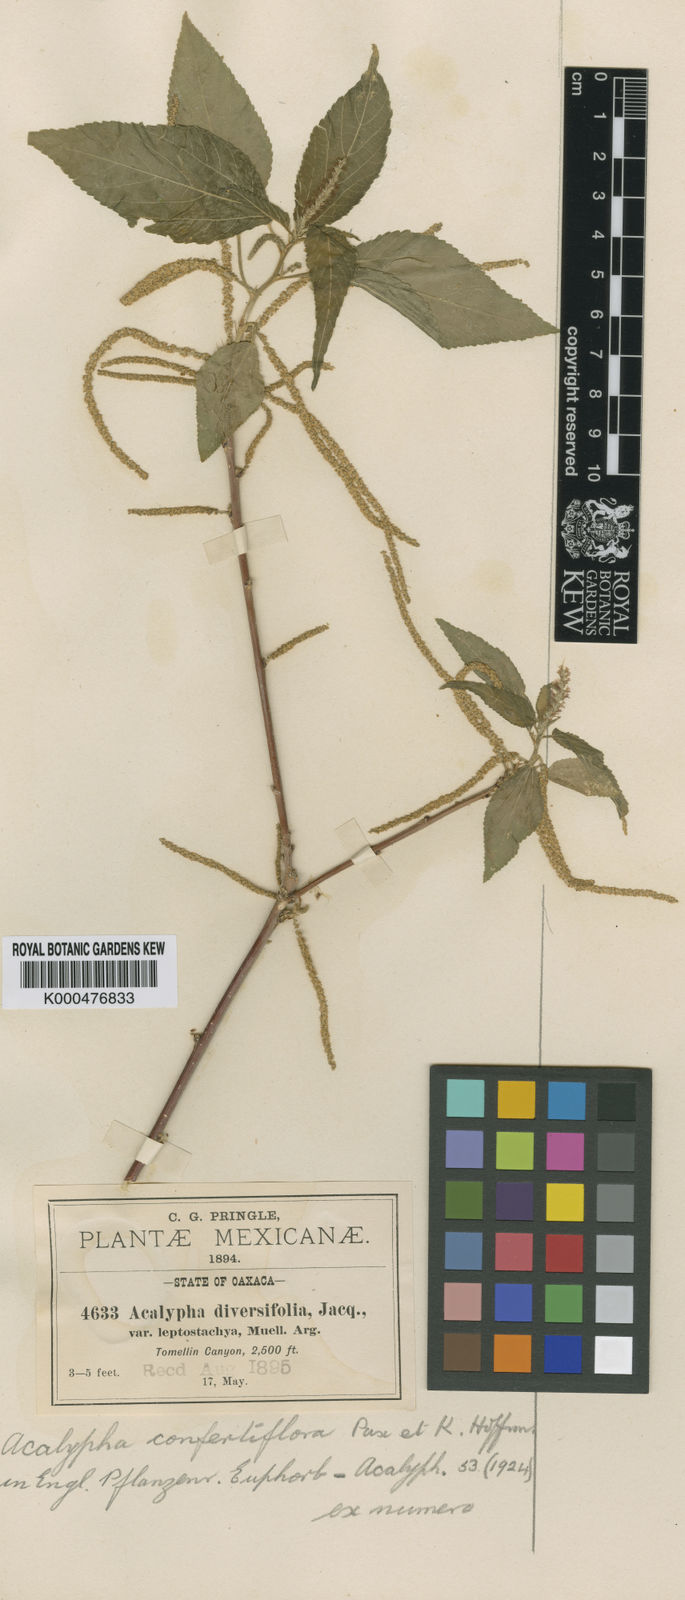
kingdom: Plantae
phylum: Tracheophyta
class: Magnoliopsida
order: Malpighiales
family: Euphorbiaceae
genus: Acalypha
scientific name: Acalypha confertiflora
